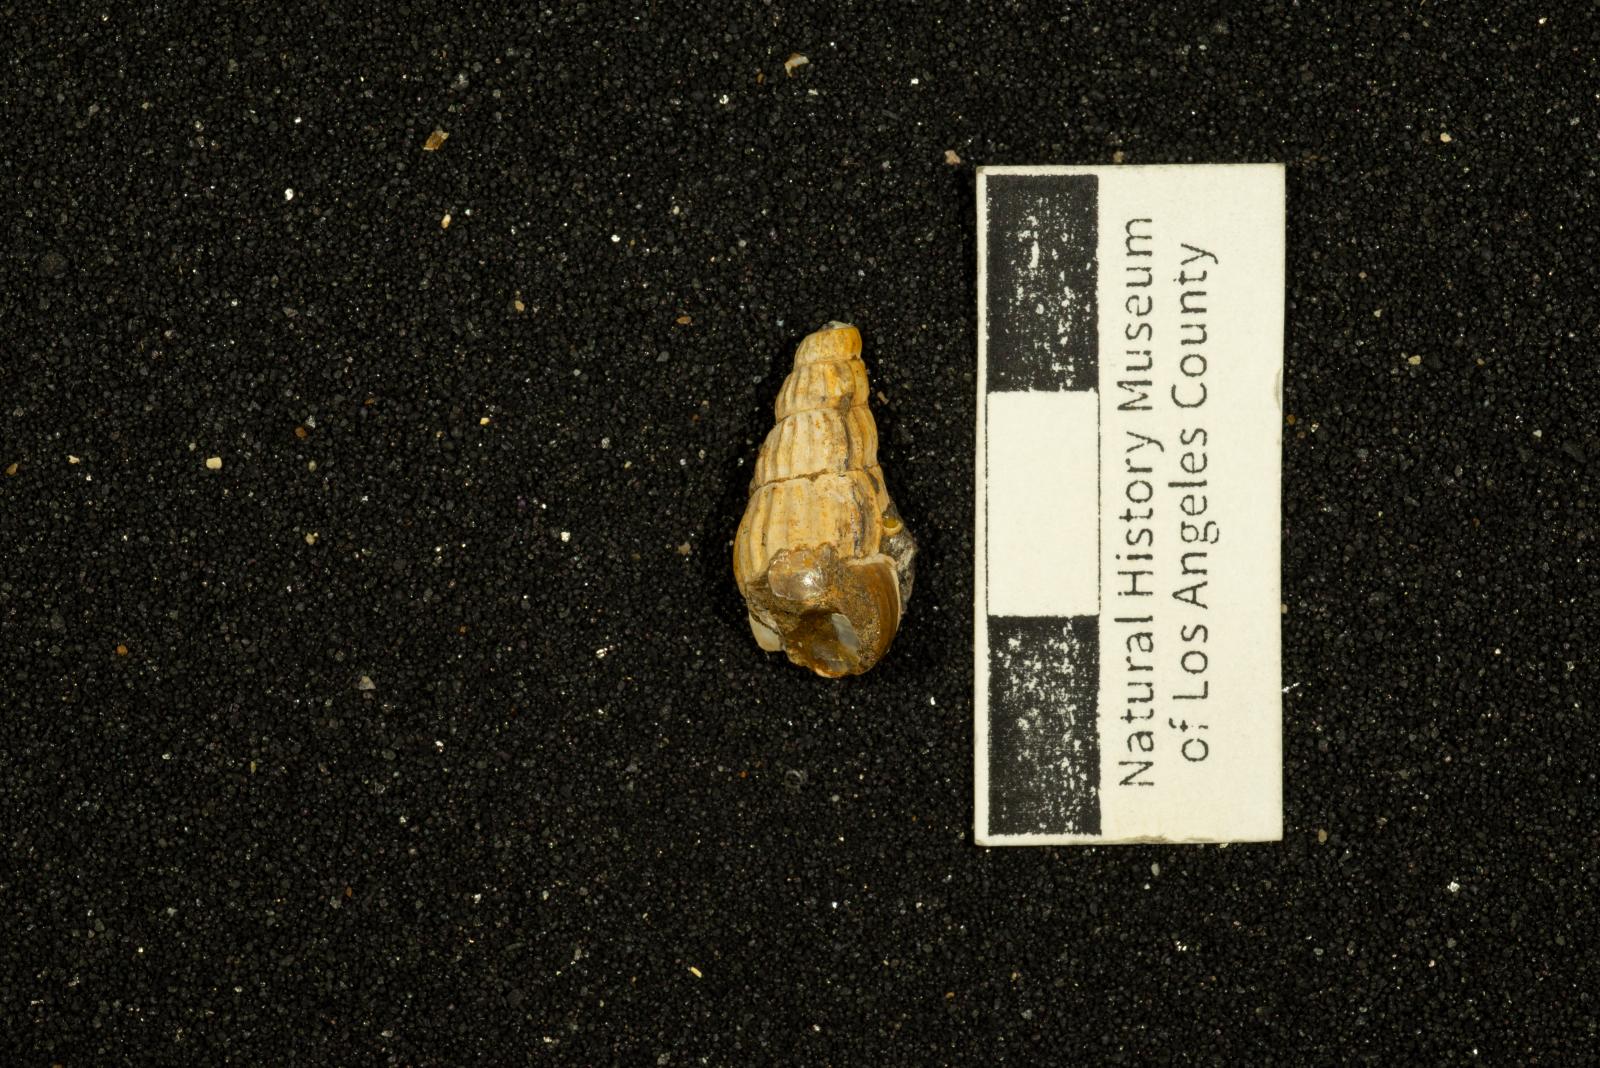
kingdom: Animalia
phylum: Mollusca
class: Gastropoda
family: Epitoniidae
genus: Amaea
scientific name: Amaea trifolia
